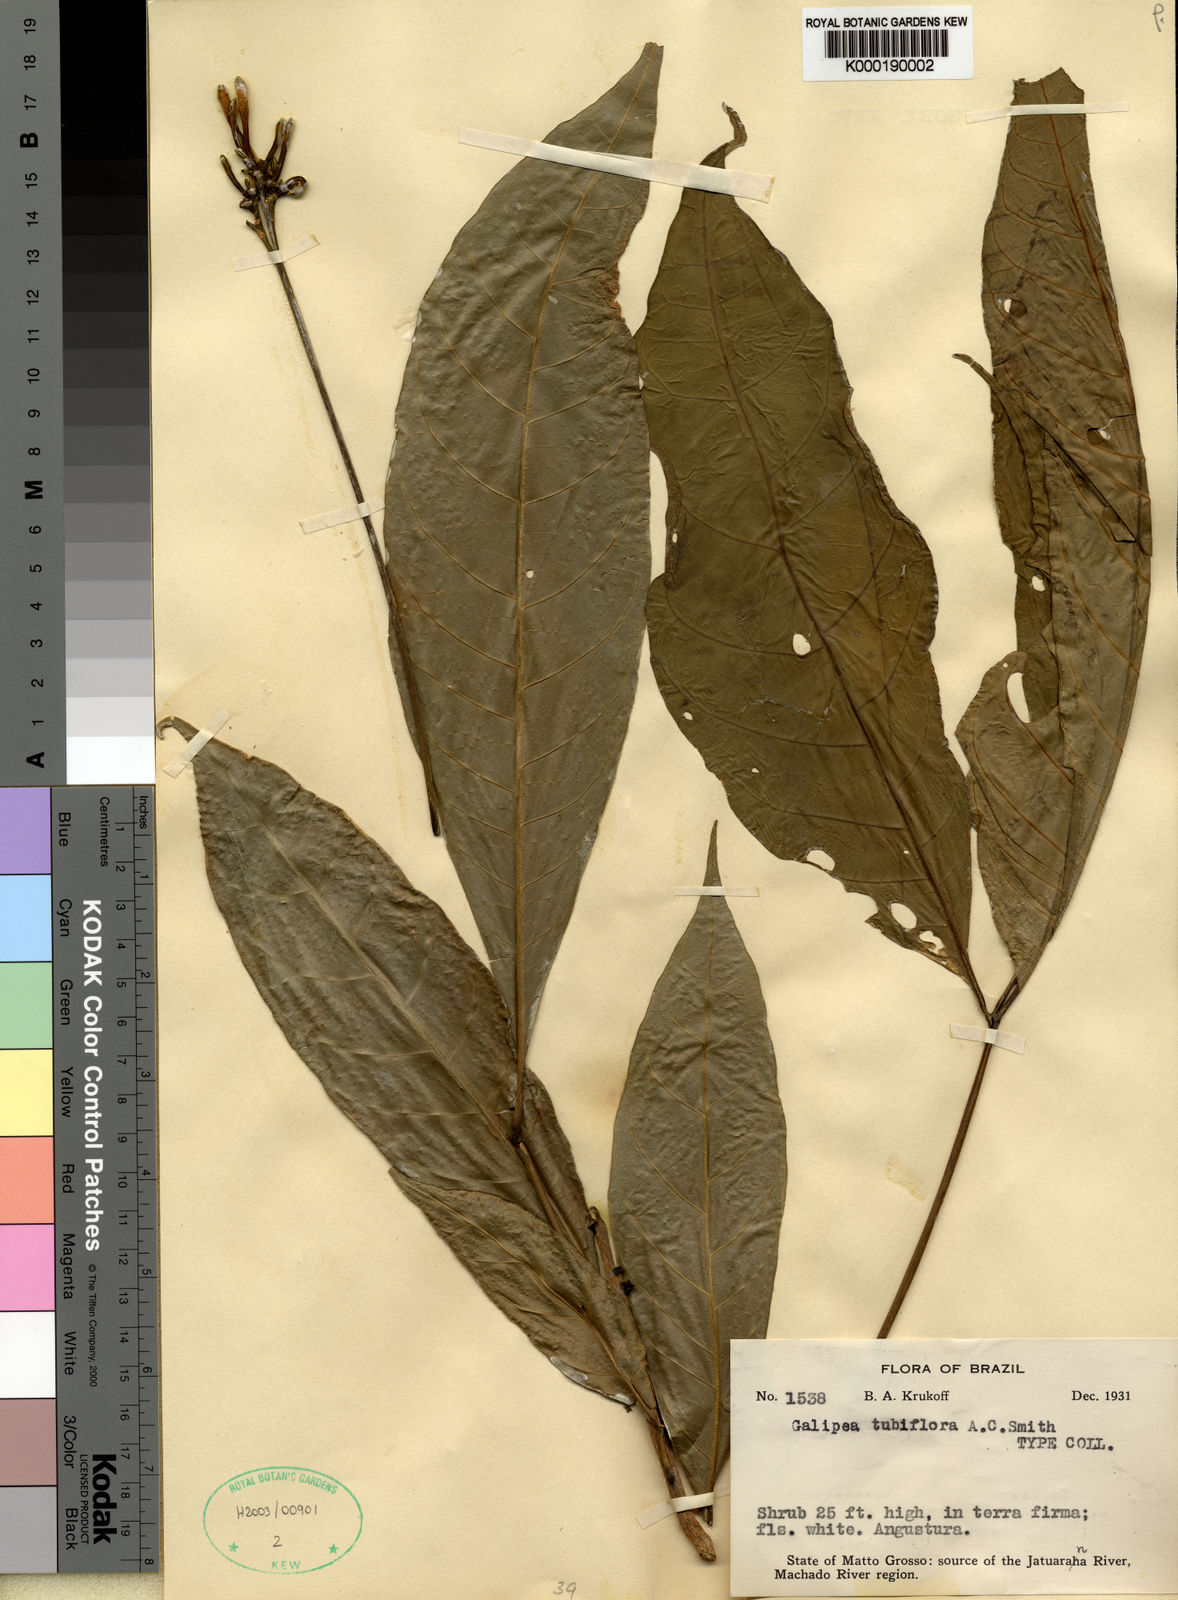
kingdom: Plantae
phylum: Tracheophyta
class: Magnoliopsida
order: Sapindales
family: Rutaceae
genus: Galipea
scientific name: Galipea
